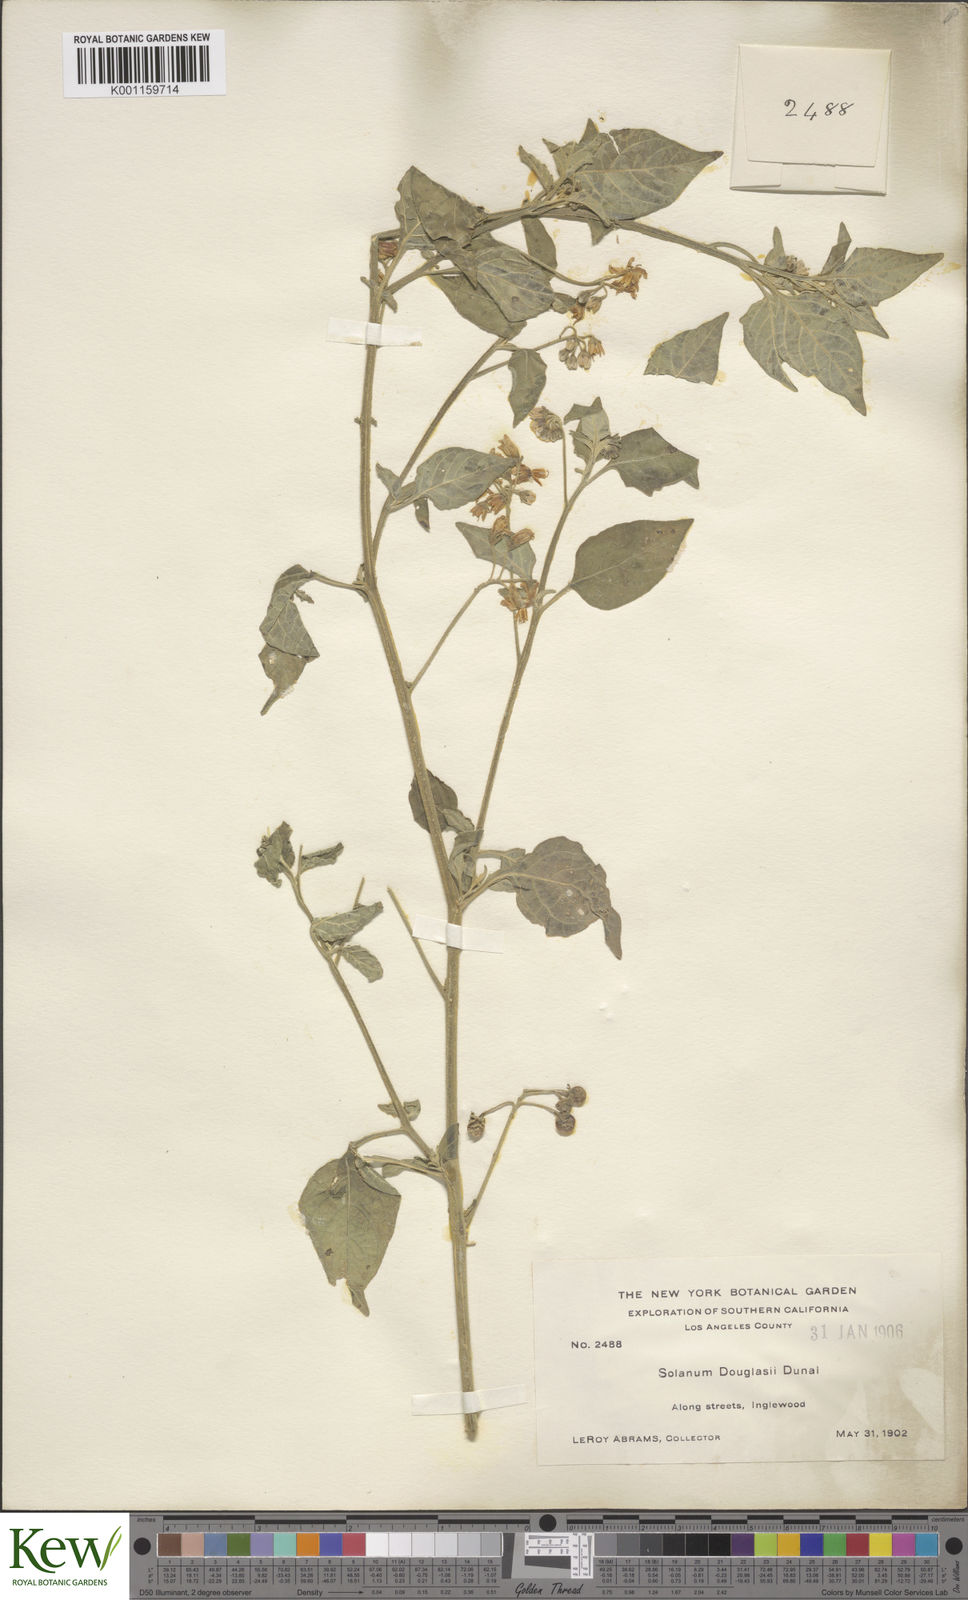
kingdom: Plantae
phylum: Tracheophyta
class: Magnoliopsida
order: Solanales
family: Solanaceae
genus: Solanum
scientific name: Solanum douglasii
